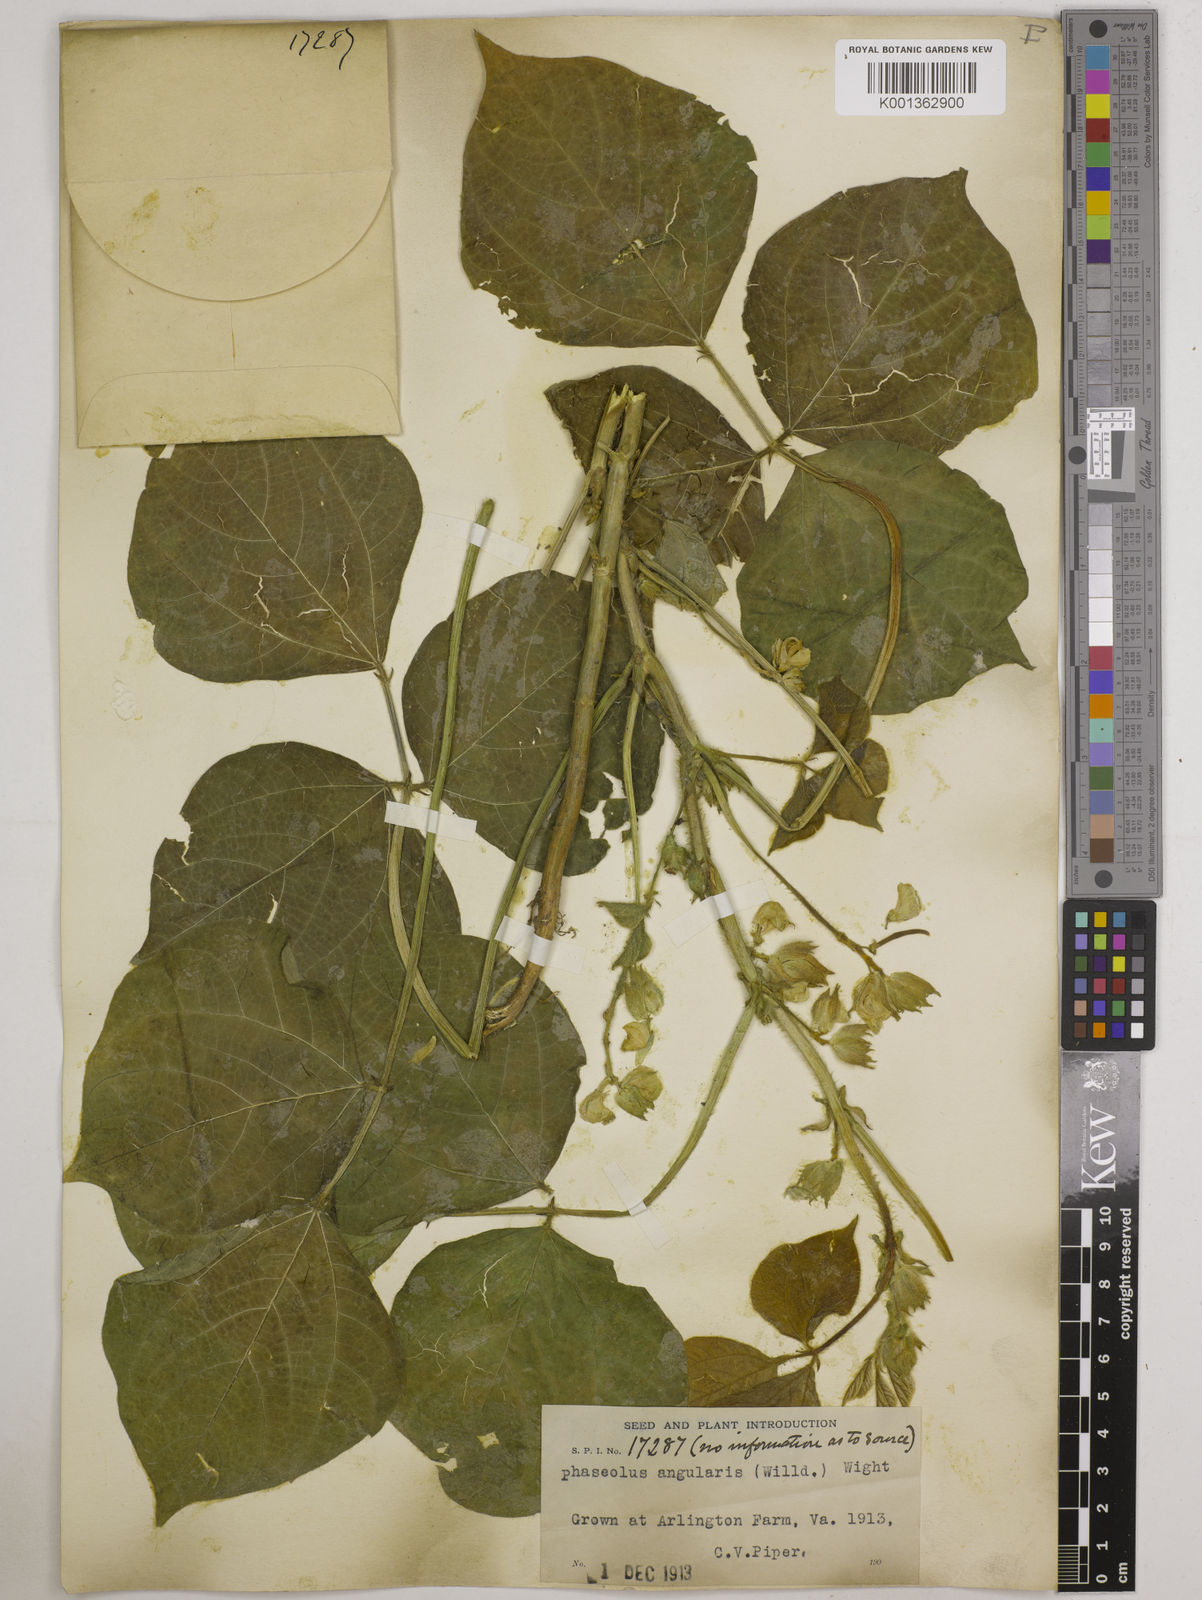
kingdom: Plantae
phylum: Tracheophyta
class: Magnoliopsida
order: Fabales
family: Fabaceae
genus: Vigna
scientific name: Vigna angularis
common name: Adzuki bean
